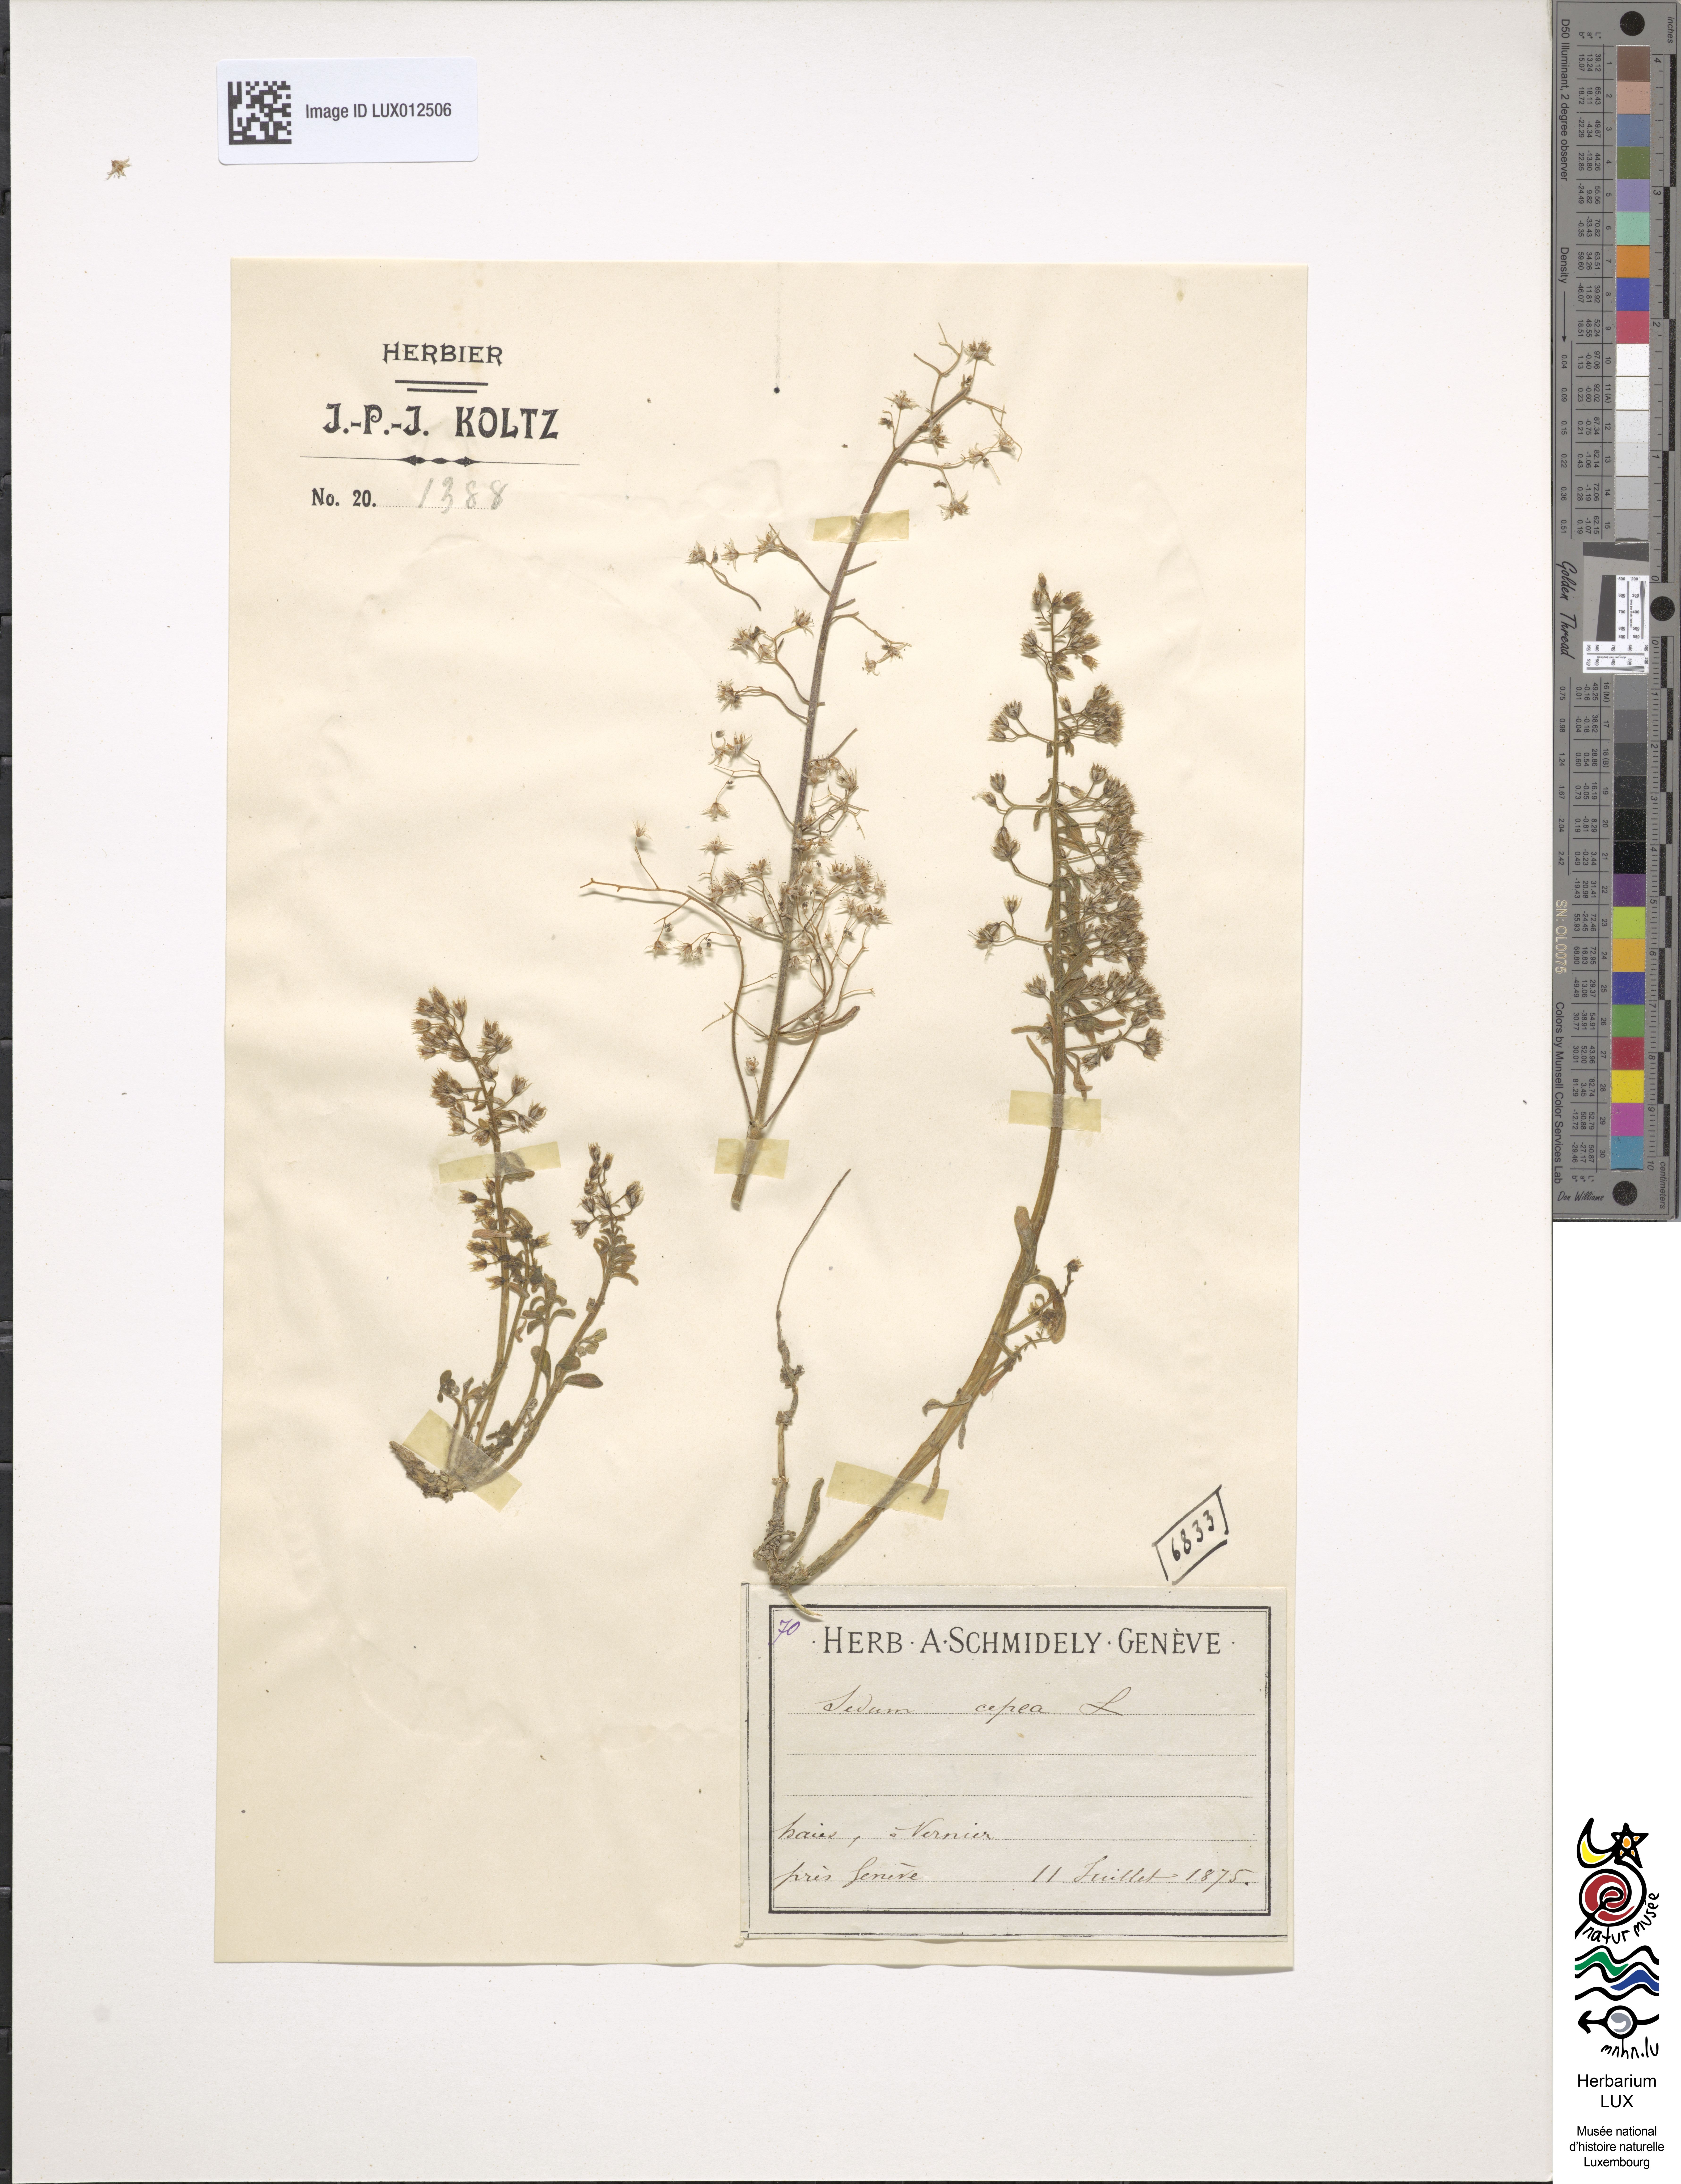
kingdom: Plantae
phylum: Tracheophyta
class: Magnoliopsida
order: Saxifragales
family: Crassulaceae
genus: Sedum
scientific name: Sedum cepaea
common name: Pink stonecrop
